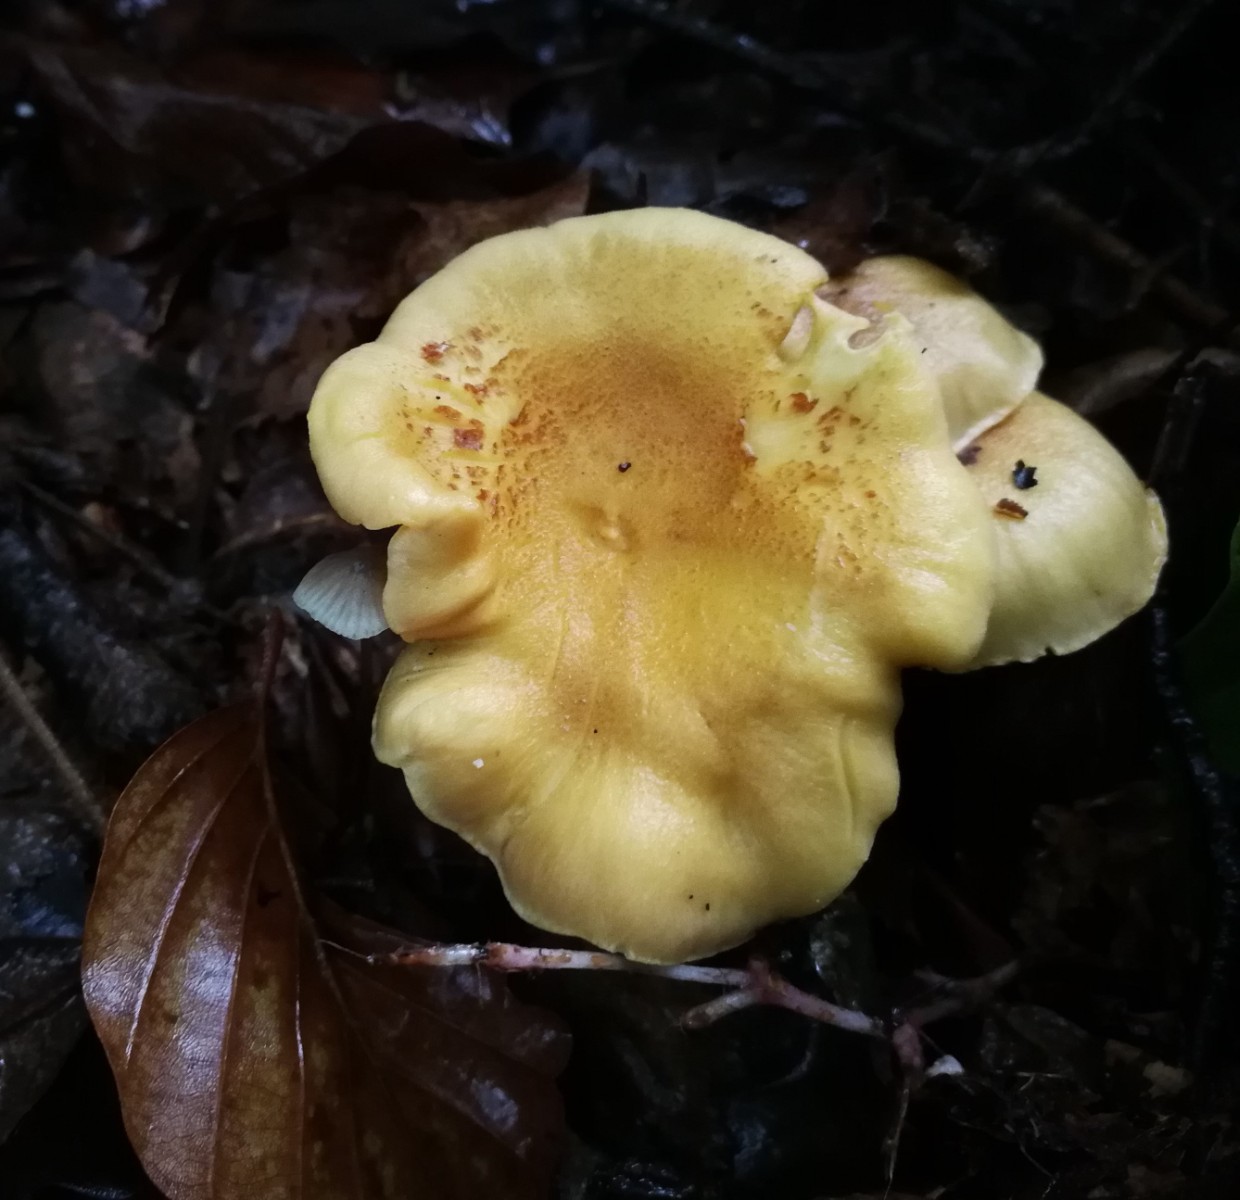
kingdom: Fungi
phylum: Basidiomycota
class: Agaricomycetes
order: Cantharellales
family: Hydnaceae
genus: Cantharellus
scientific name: Cantharellus cibarius
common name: almindelig kantarel
